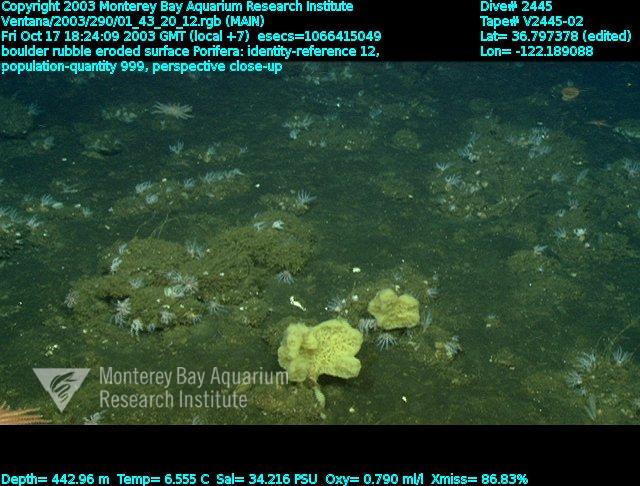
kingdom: Animalia
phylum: Porifera
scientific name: Porifera
